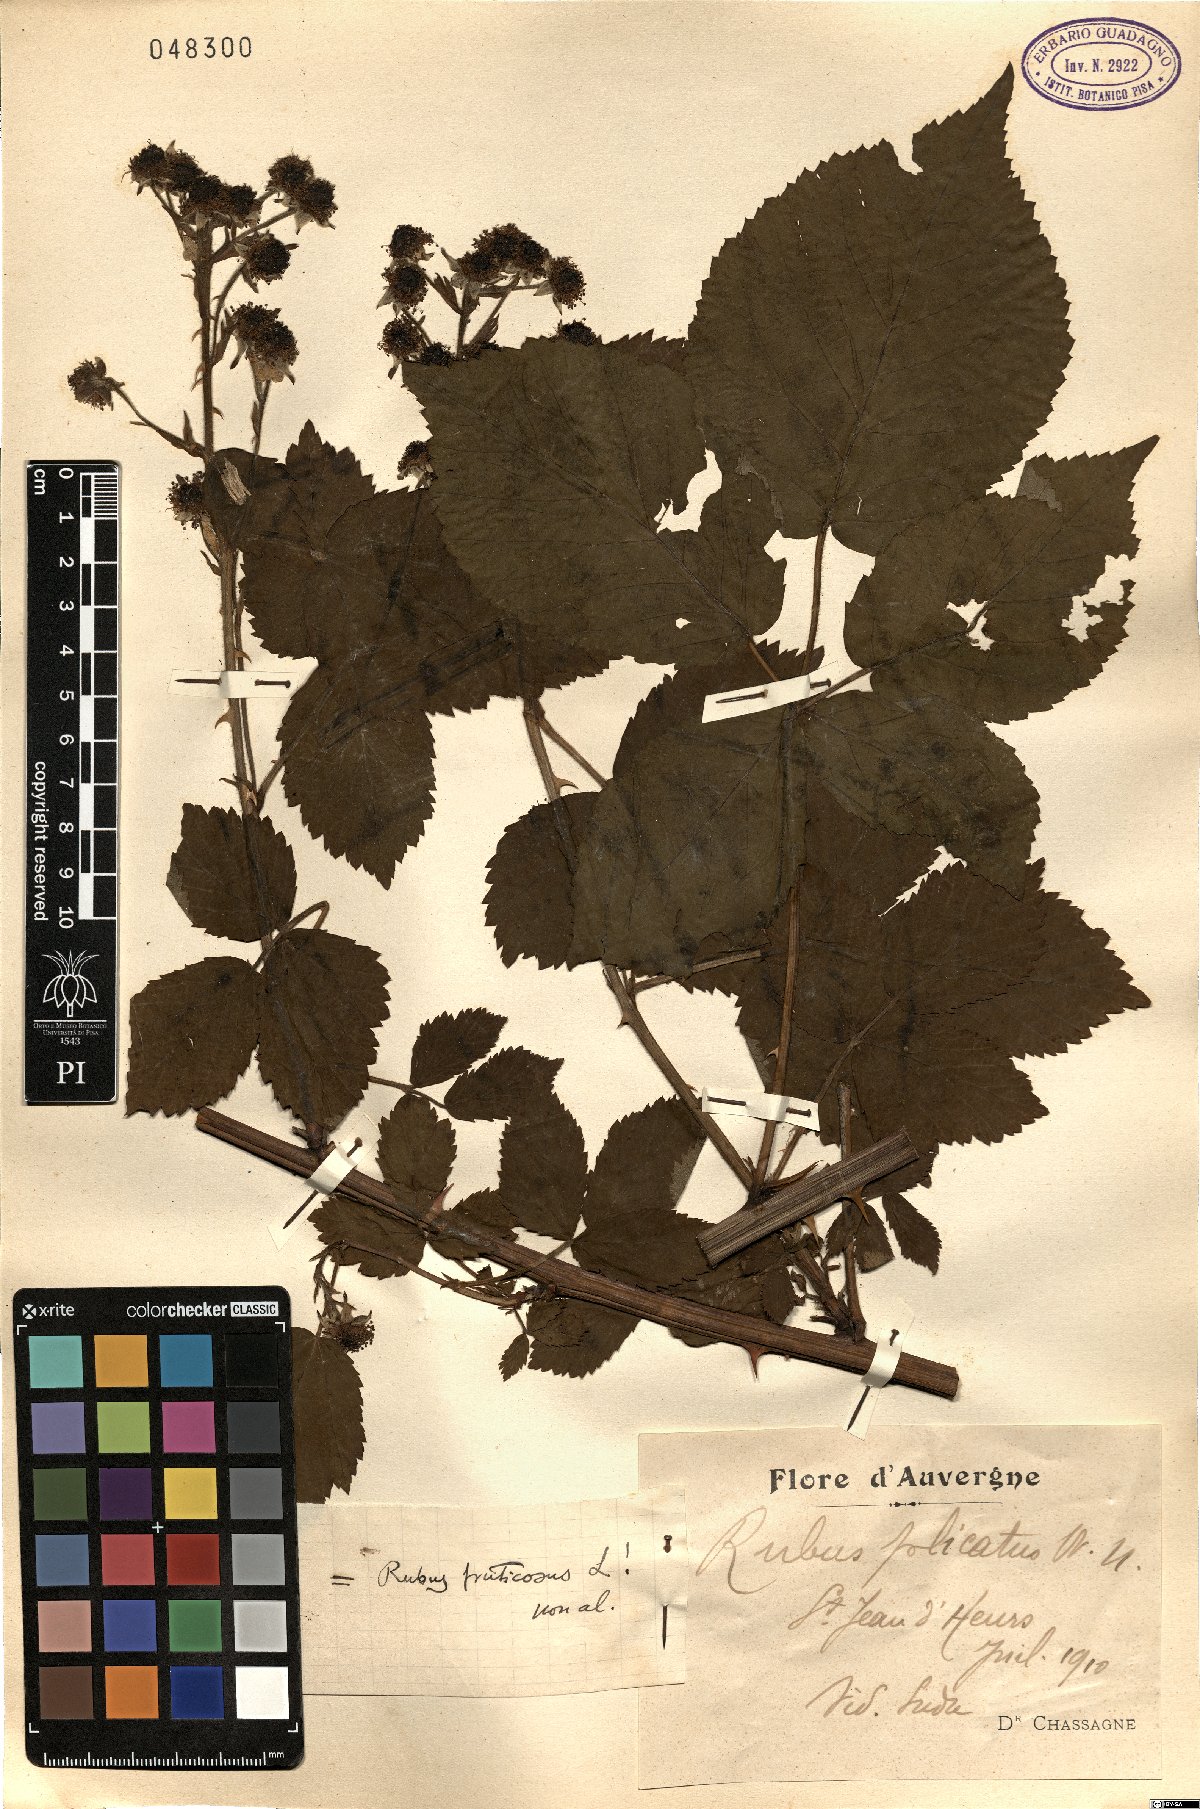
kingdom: Plantae
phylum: Tracheophyta
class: Magnoliopsida
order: Rosales
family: Rosaceae
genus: Rubus
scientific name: Rubus fruticosus
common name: Blackberry, bramble
